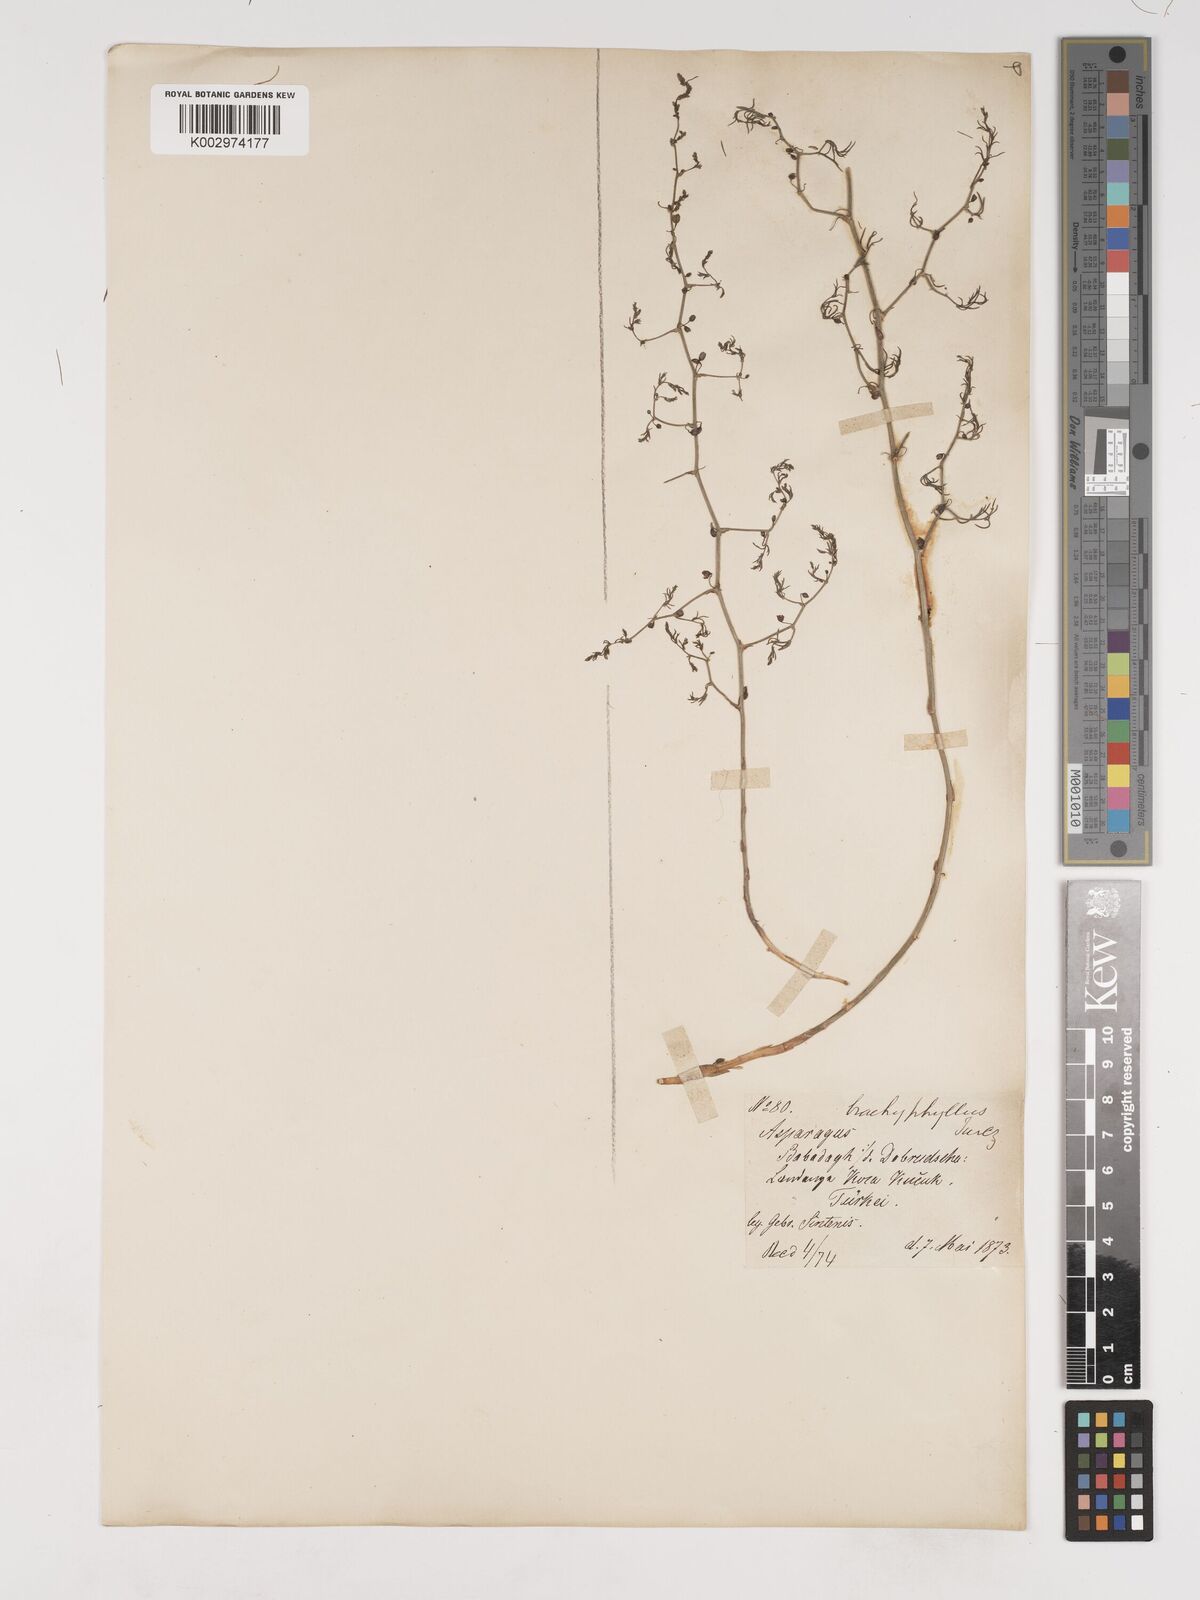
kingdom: Plantae
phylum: Tracheophyta
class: Liliopsida
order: Asparagales
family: Asparagaceae
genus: Asparagus
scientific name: Asparagus brachyphyllus
